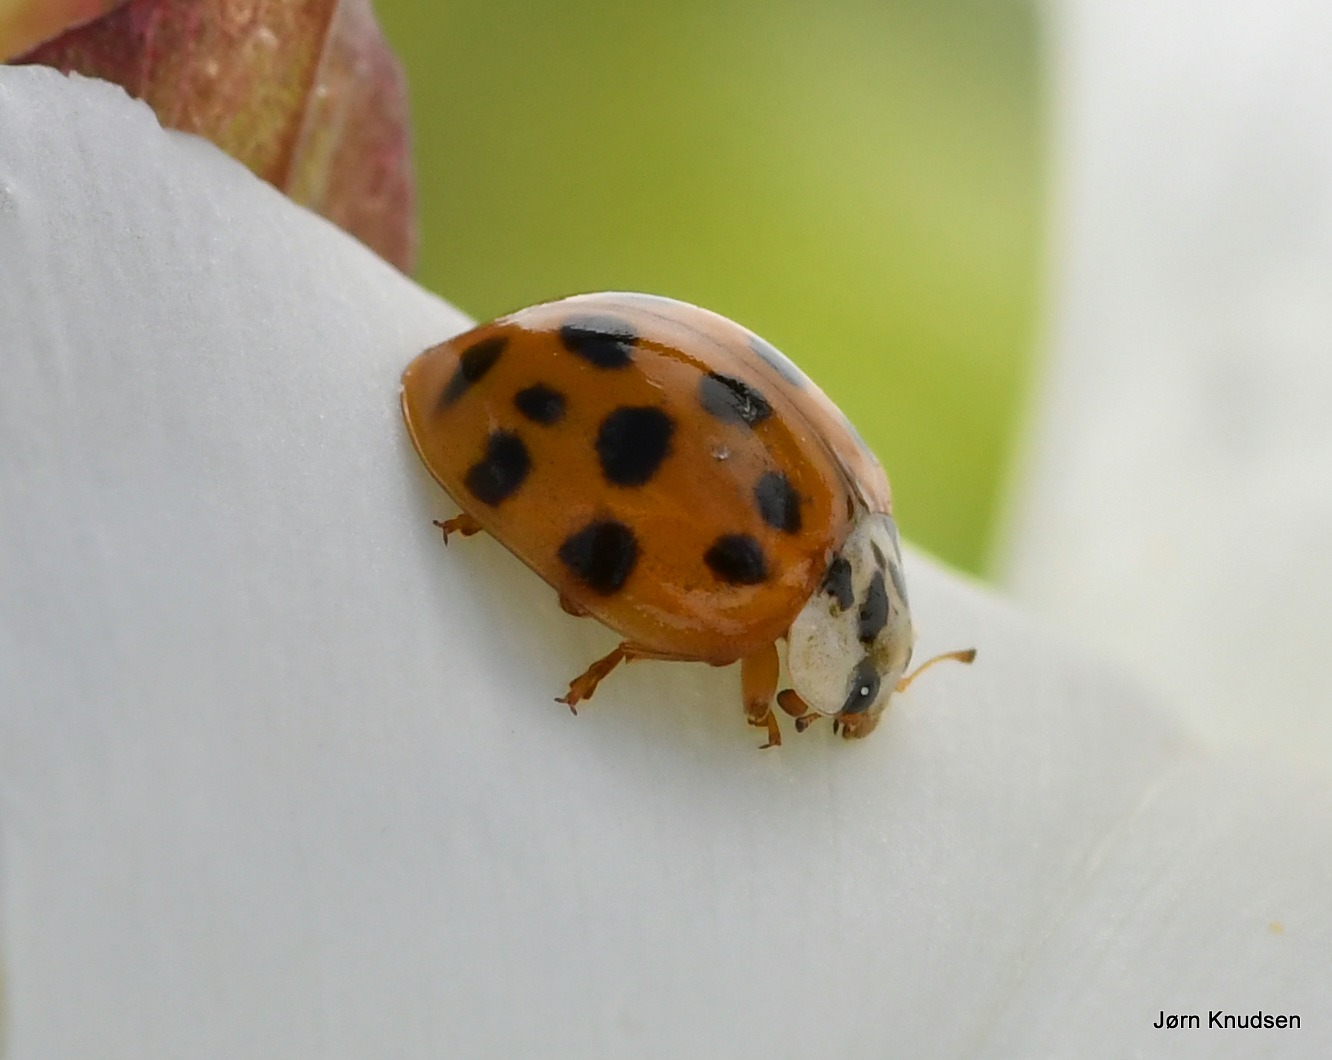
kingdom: Animalia
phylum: Arthropoda
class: Insecta
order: Coleoptera
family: Coccinellidae
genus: Harmonia
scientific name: Harmonia axyridis
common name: Harlekinmariehøne
